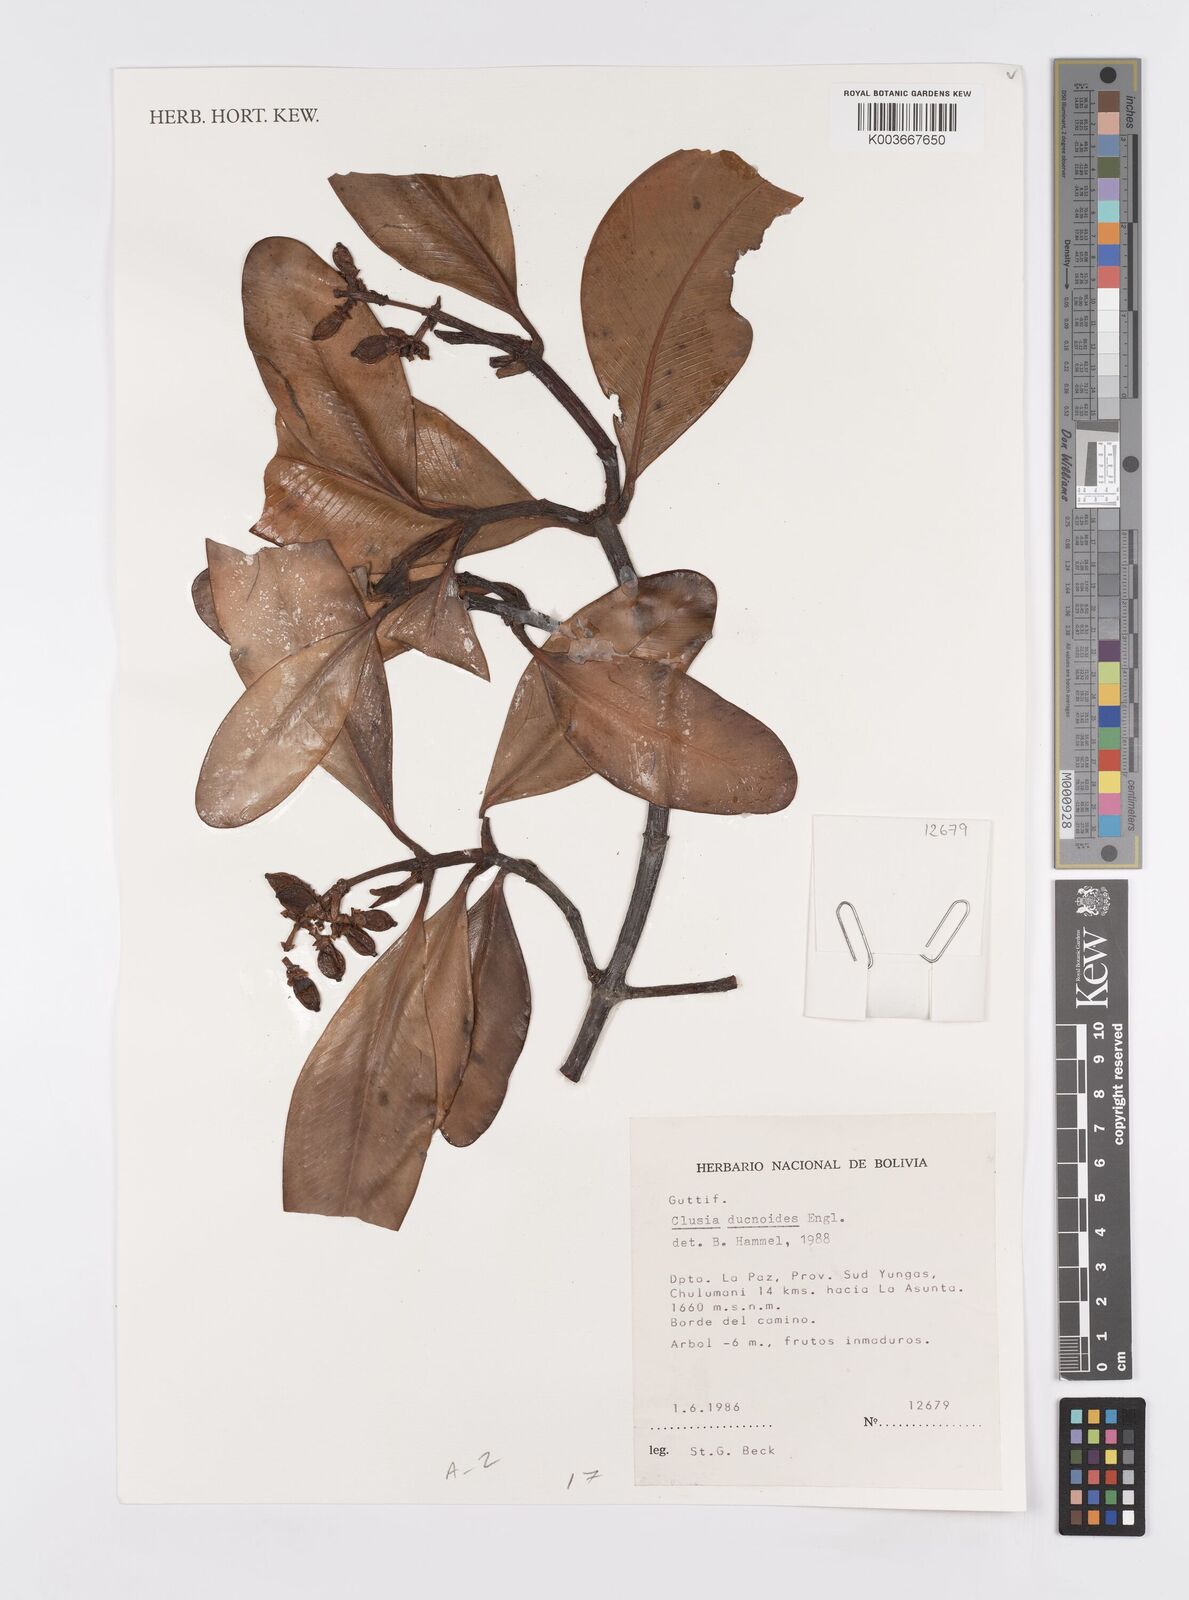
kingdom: Plantae
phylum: Tracheophyta
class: Magnoliopsida
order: Malpighiales
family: Clusiaceae
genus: Clusia
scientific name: Clusia ducuoides
